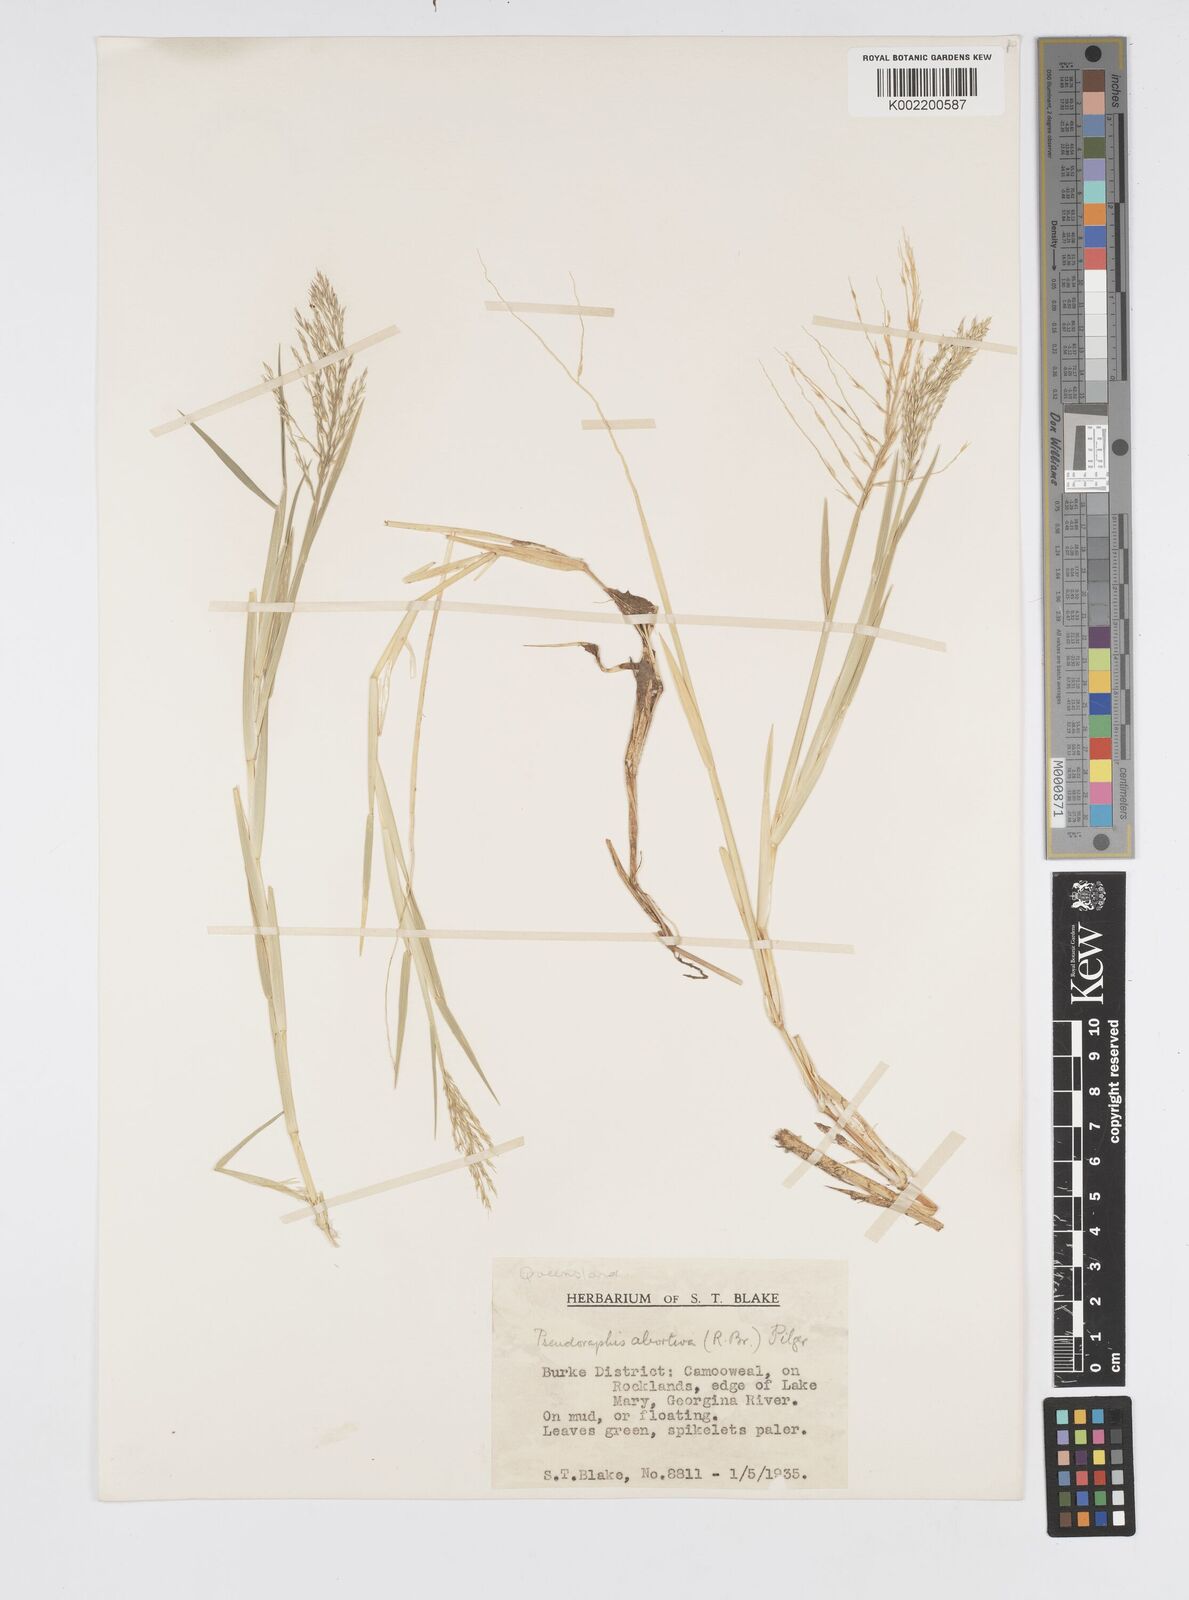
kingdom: Plantae
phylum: Tracheophyta
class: Liliopsida
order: Poales
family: Poaceae
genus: Pseudoraphis
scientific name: Pseudoraphis spinescens
